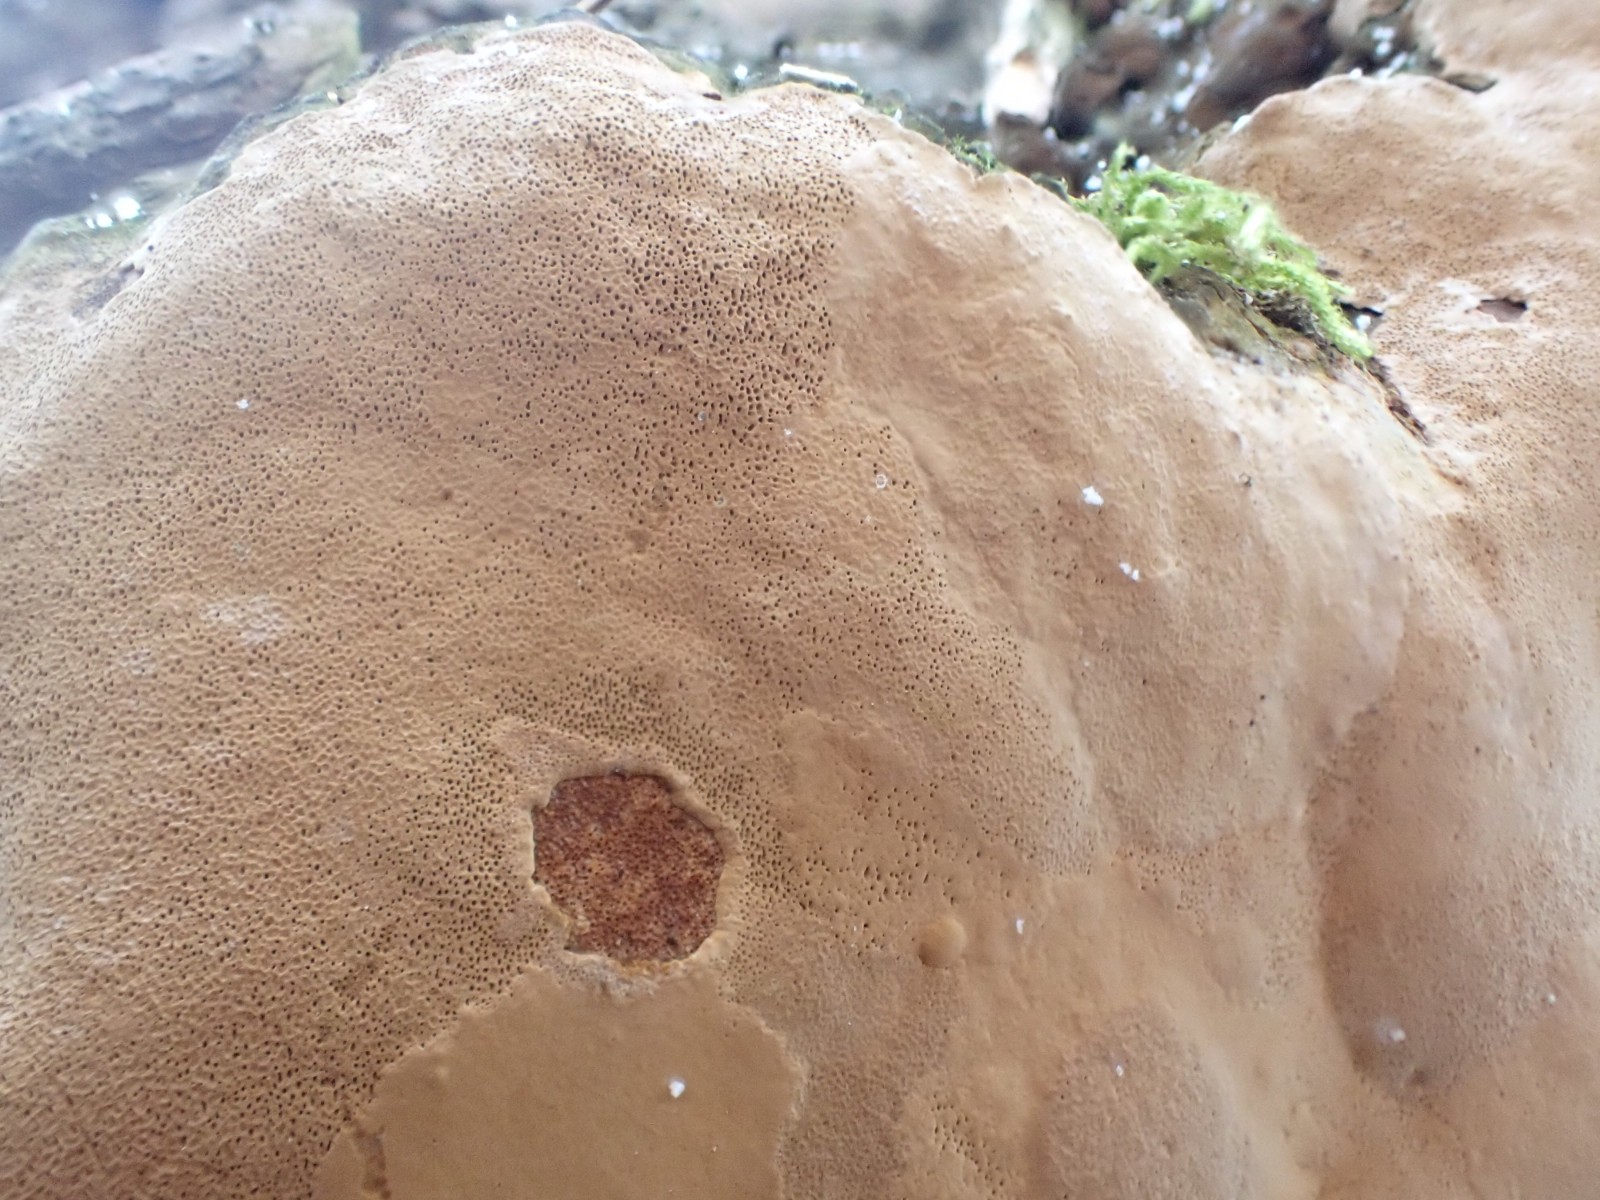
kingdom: Fungi
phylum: Basidiomycota
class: Agaricomycetes
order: Hymenochaetales
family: Hymenochaetaceae
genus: Fomitiporia
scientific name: Fomitiporia punctata
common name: pude-ildporesvamp
